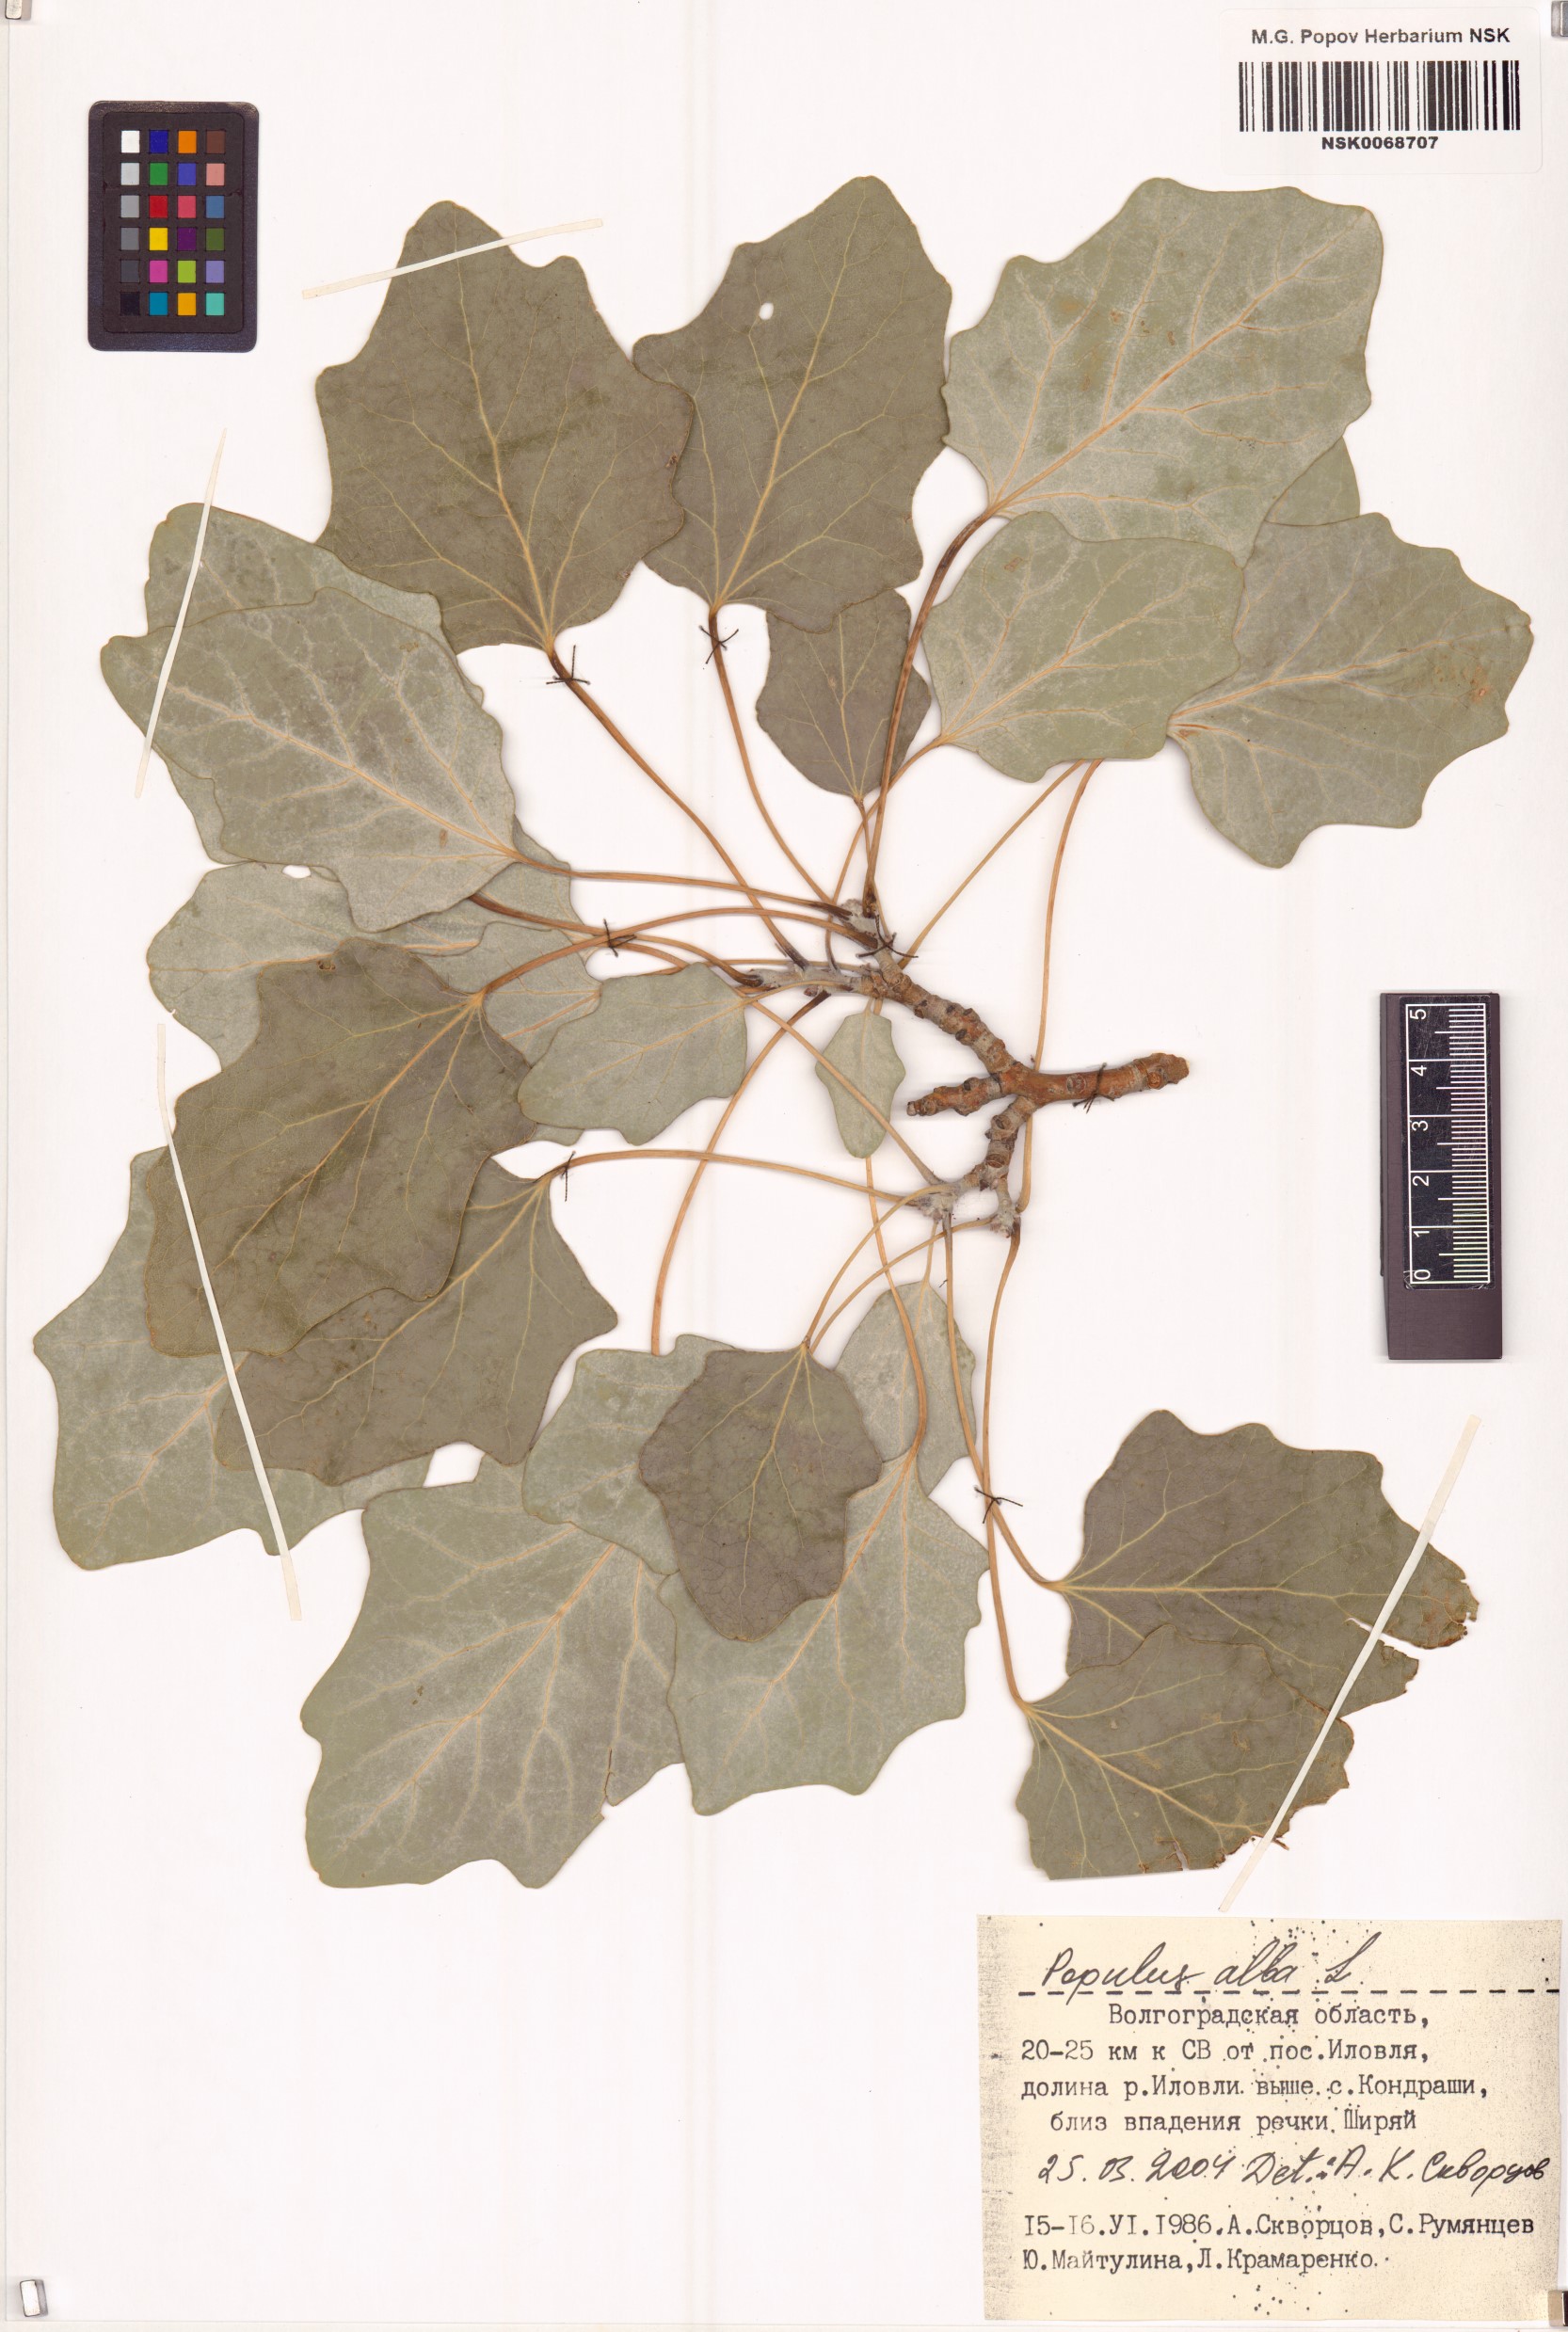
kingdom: Plantae
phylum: Tracheophyta
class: Magnoliopsida
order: Malpighiales
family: Salicaceae
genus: Populus
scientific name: Populus alba
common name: White poplar
